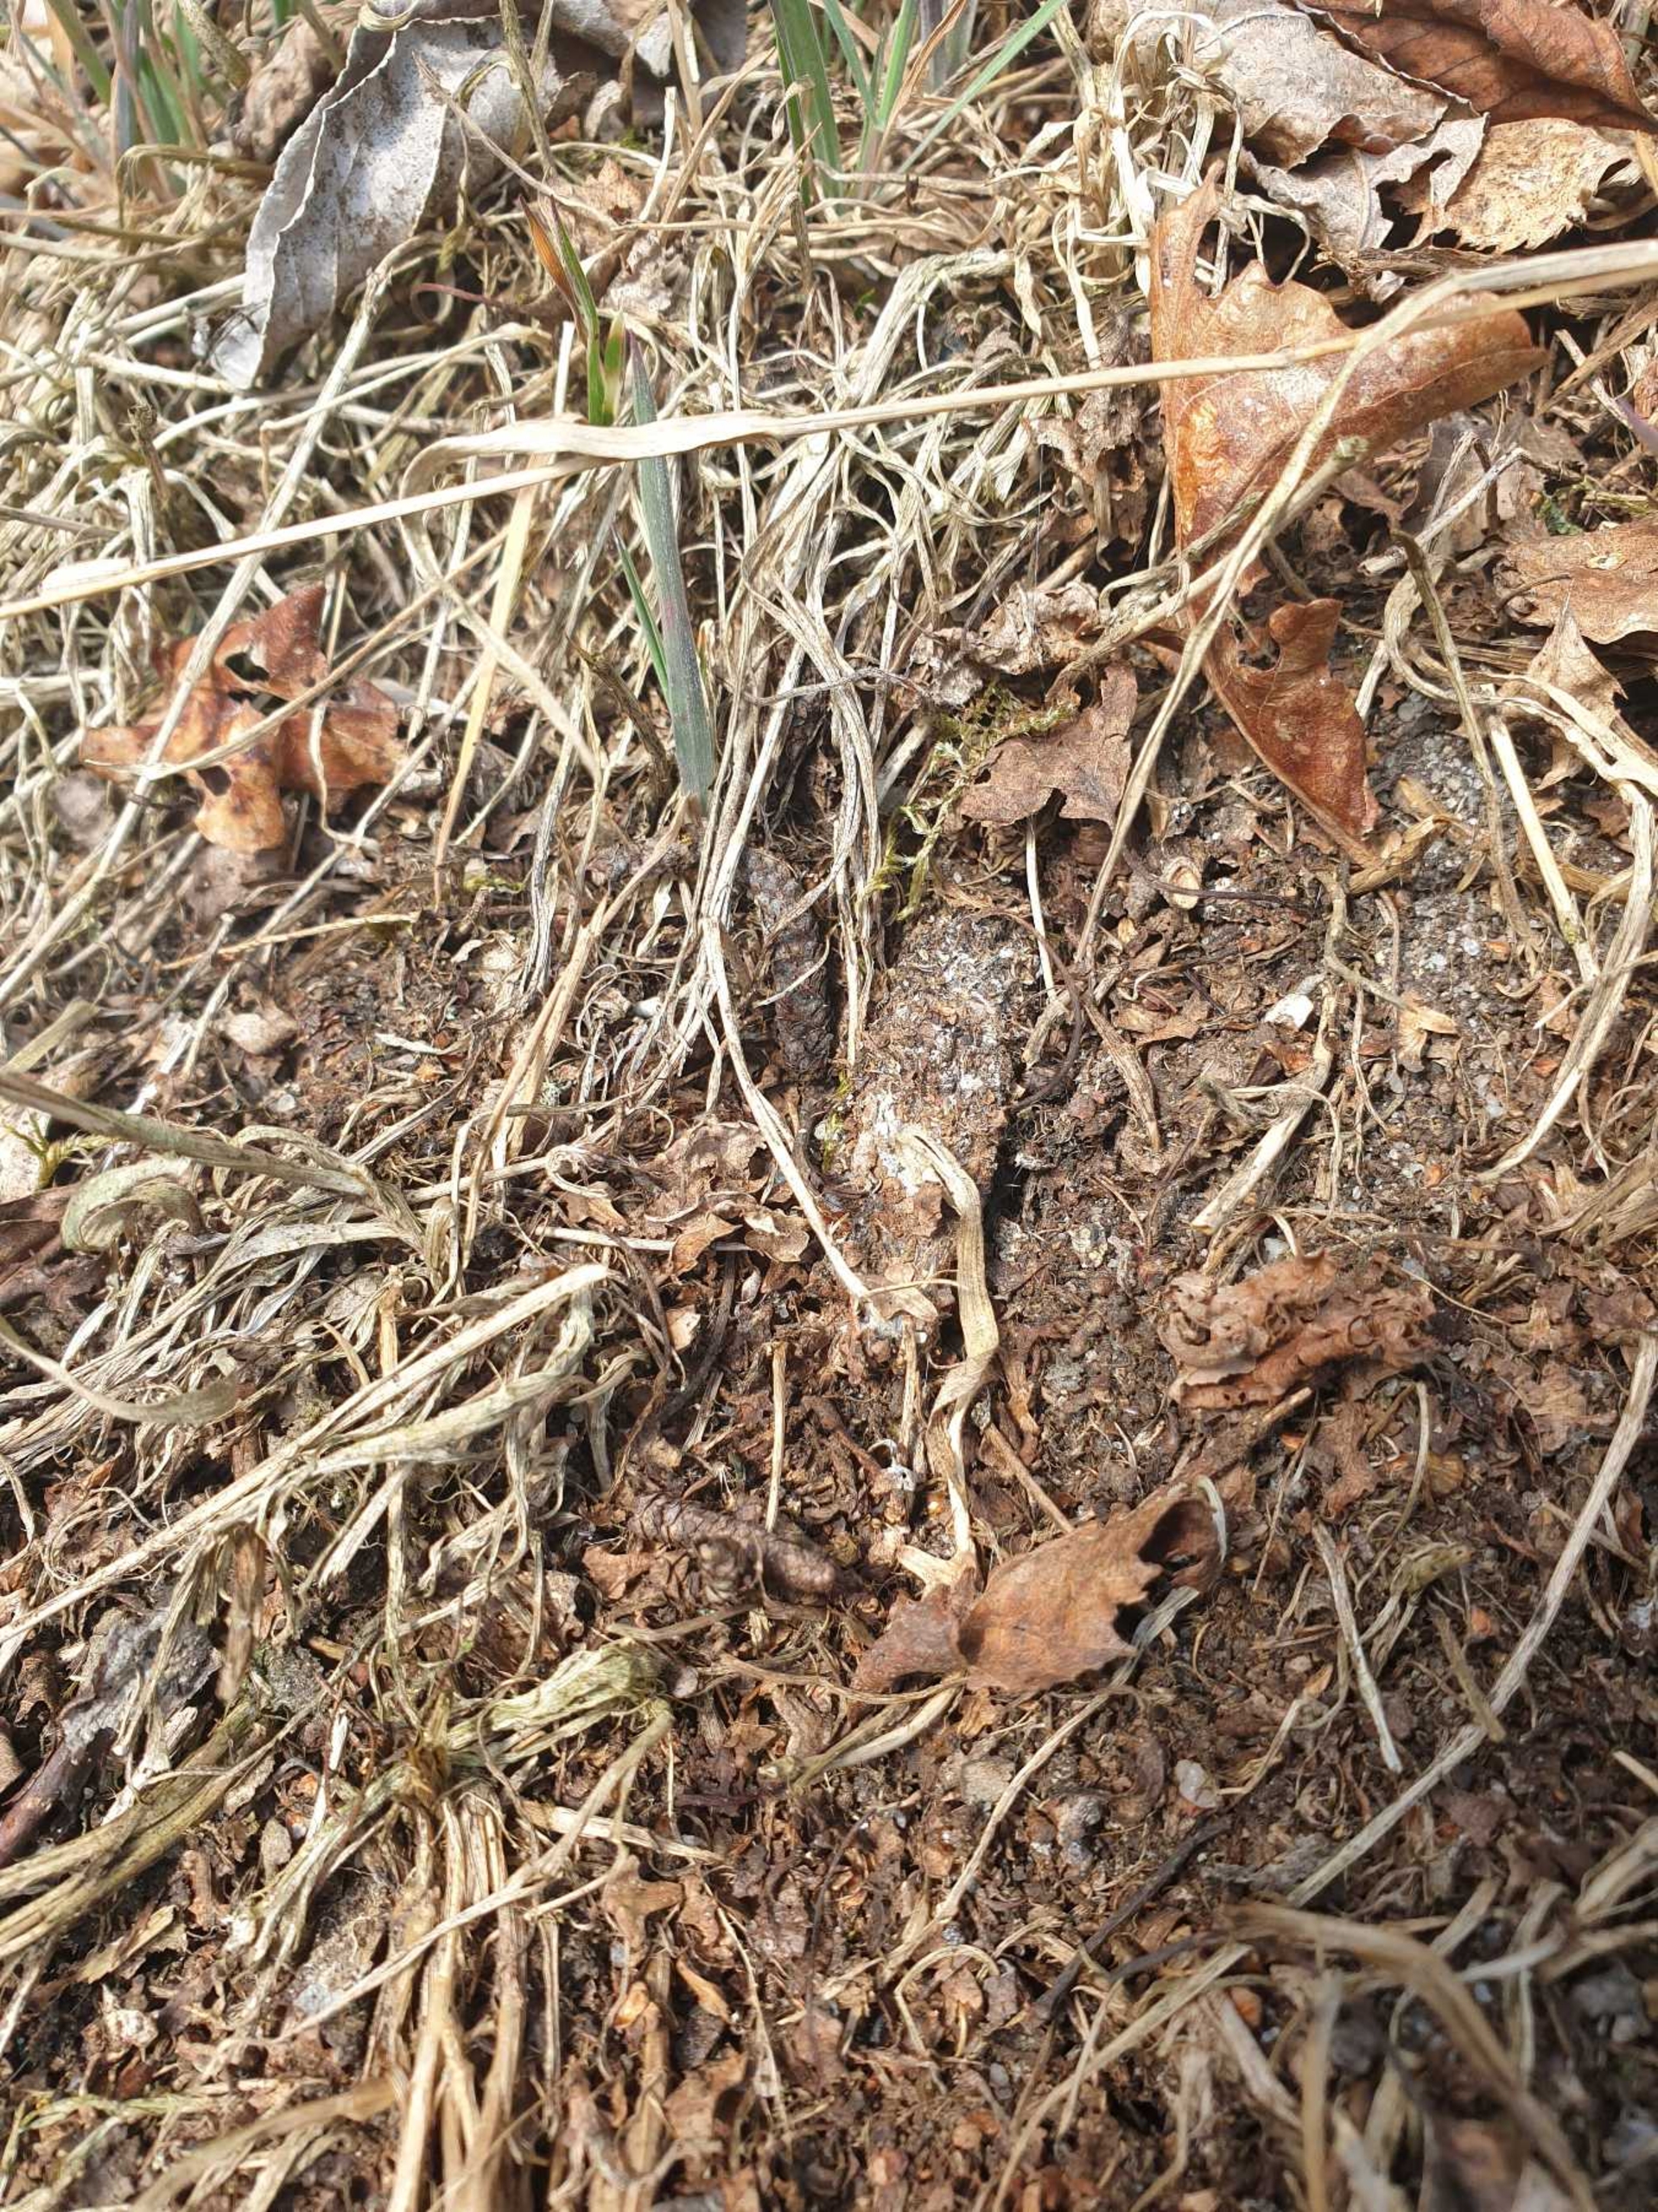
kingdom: Animalia
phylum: Arthropoda
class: Arachnida
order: Araneae
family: Atypidae
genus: Atypus
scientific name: Atypus affinis
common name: Nordlig fugleedderkop
